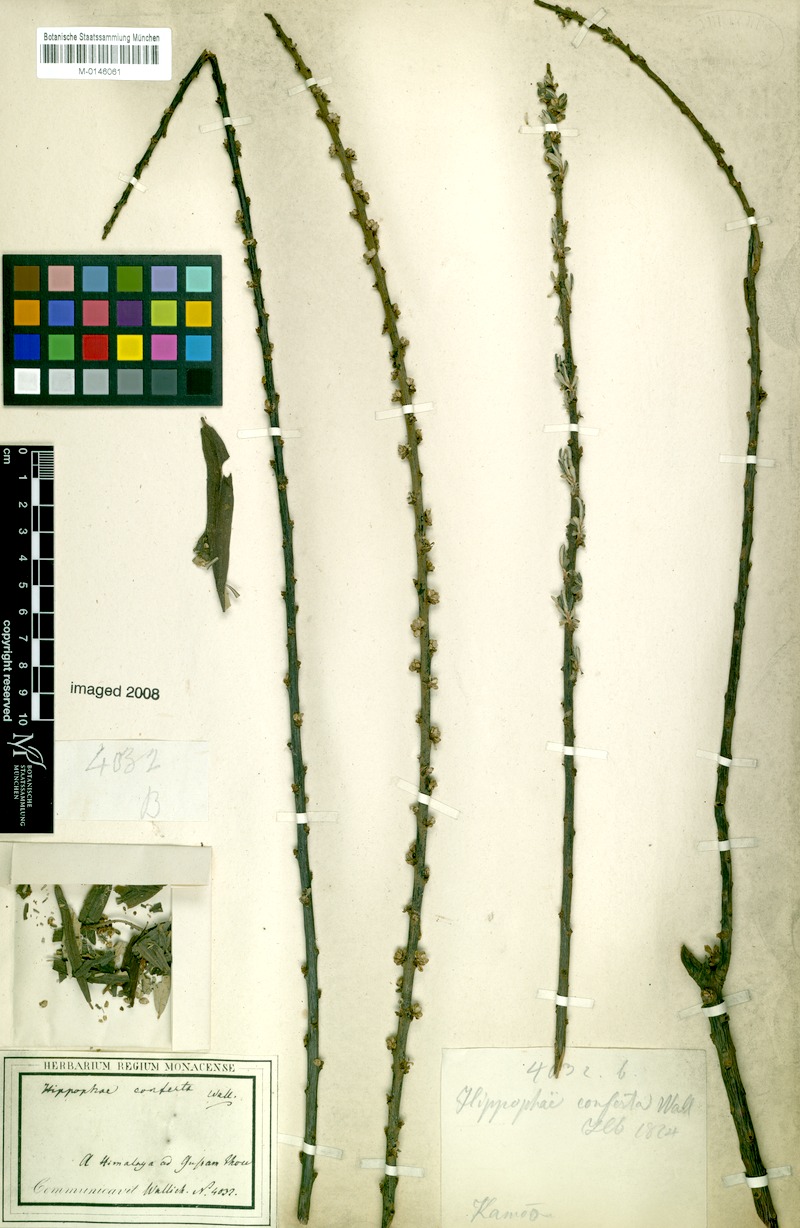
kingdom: Plantae
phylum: Tracheophyta
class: Magnoliopsida
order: Rosales
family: Elaeagnaceae
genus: Hippophae
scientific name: Hippophae salicifolia
